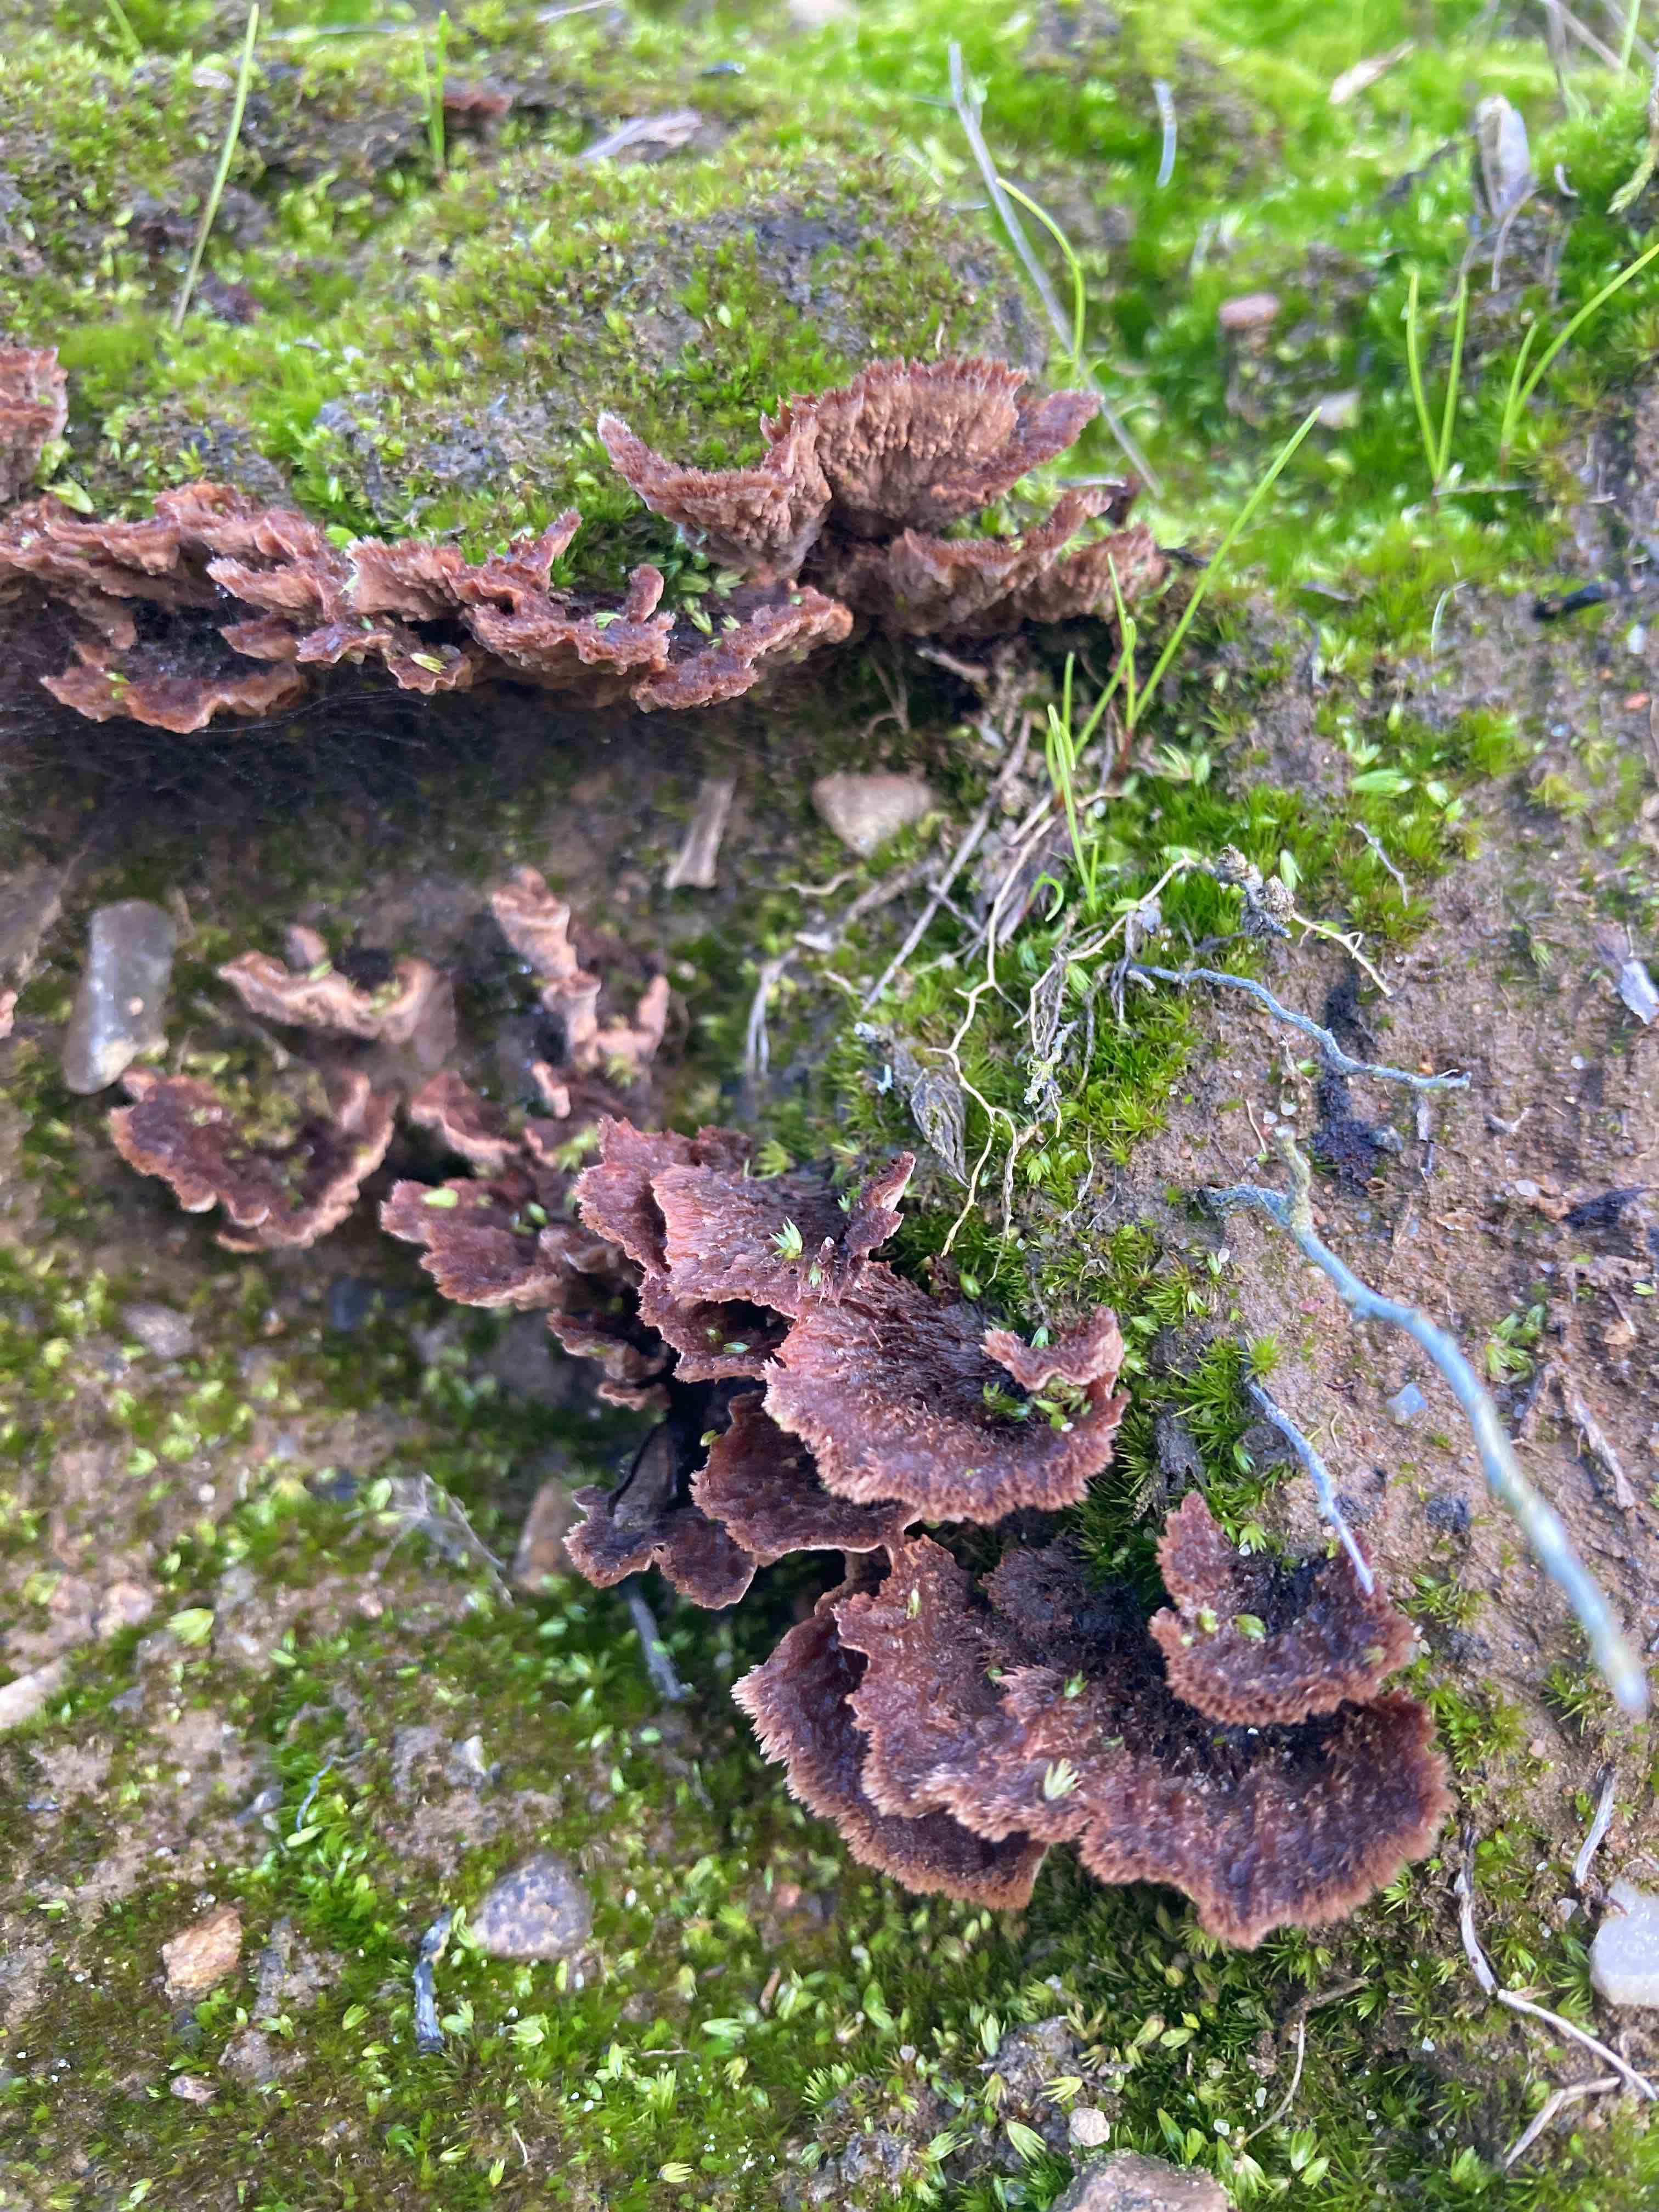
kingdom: Fungi
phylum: Basidiomycota
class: Agaricomycetes
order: Thelephorales
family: Thelephoraceae
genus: Thelephora
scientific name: Thelephora terrestris
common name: fliget frynsesvamp
